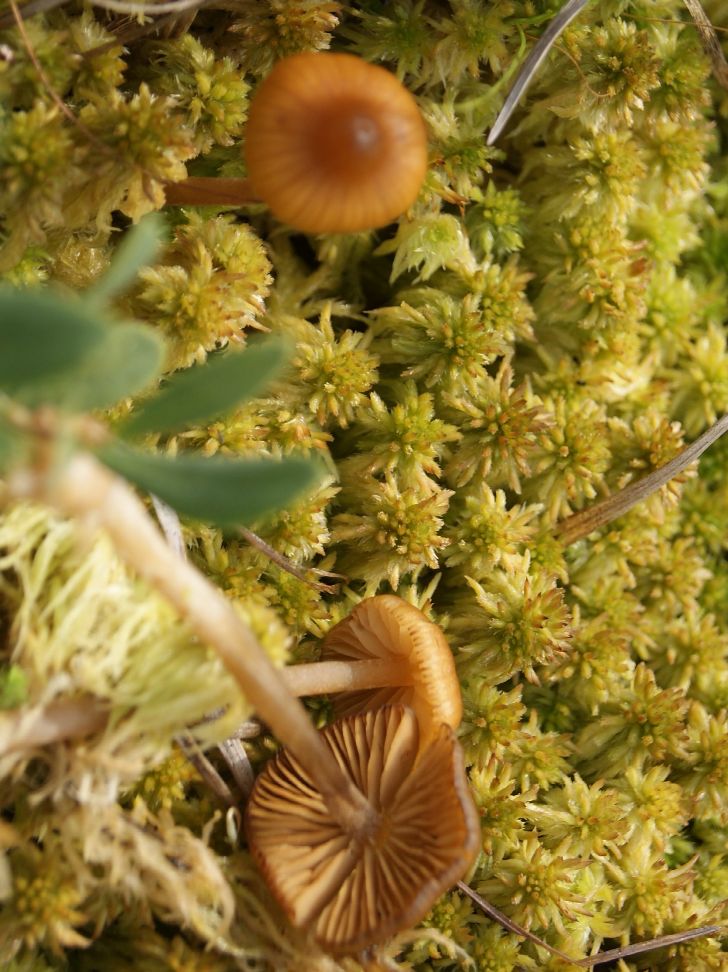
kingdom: Fungi
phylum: Basidiomycota
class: Agaricomycetes
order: Agaricales
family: Hymenogastraceae
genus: Galerina
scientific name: Galerina hybrida
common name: hængesæk-hjelmhat
